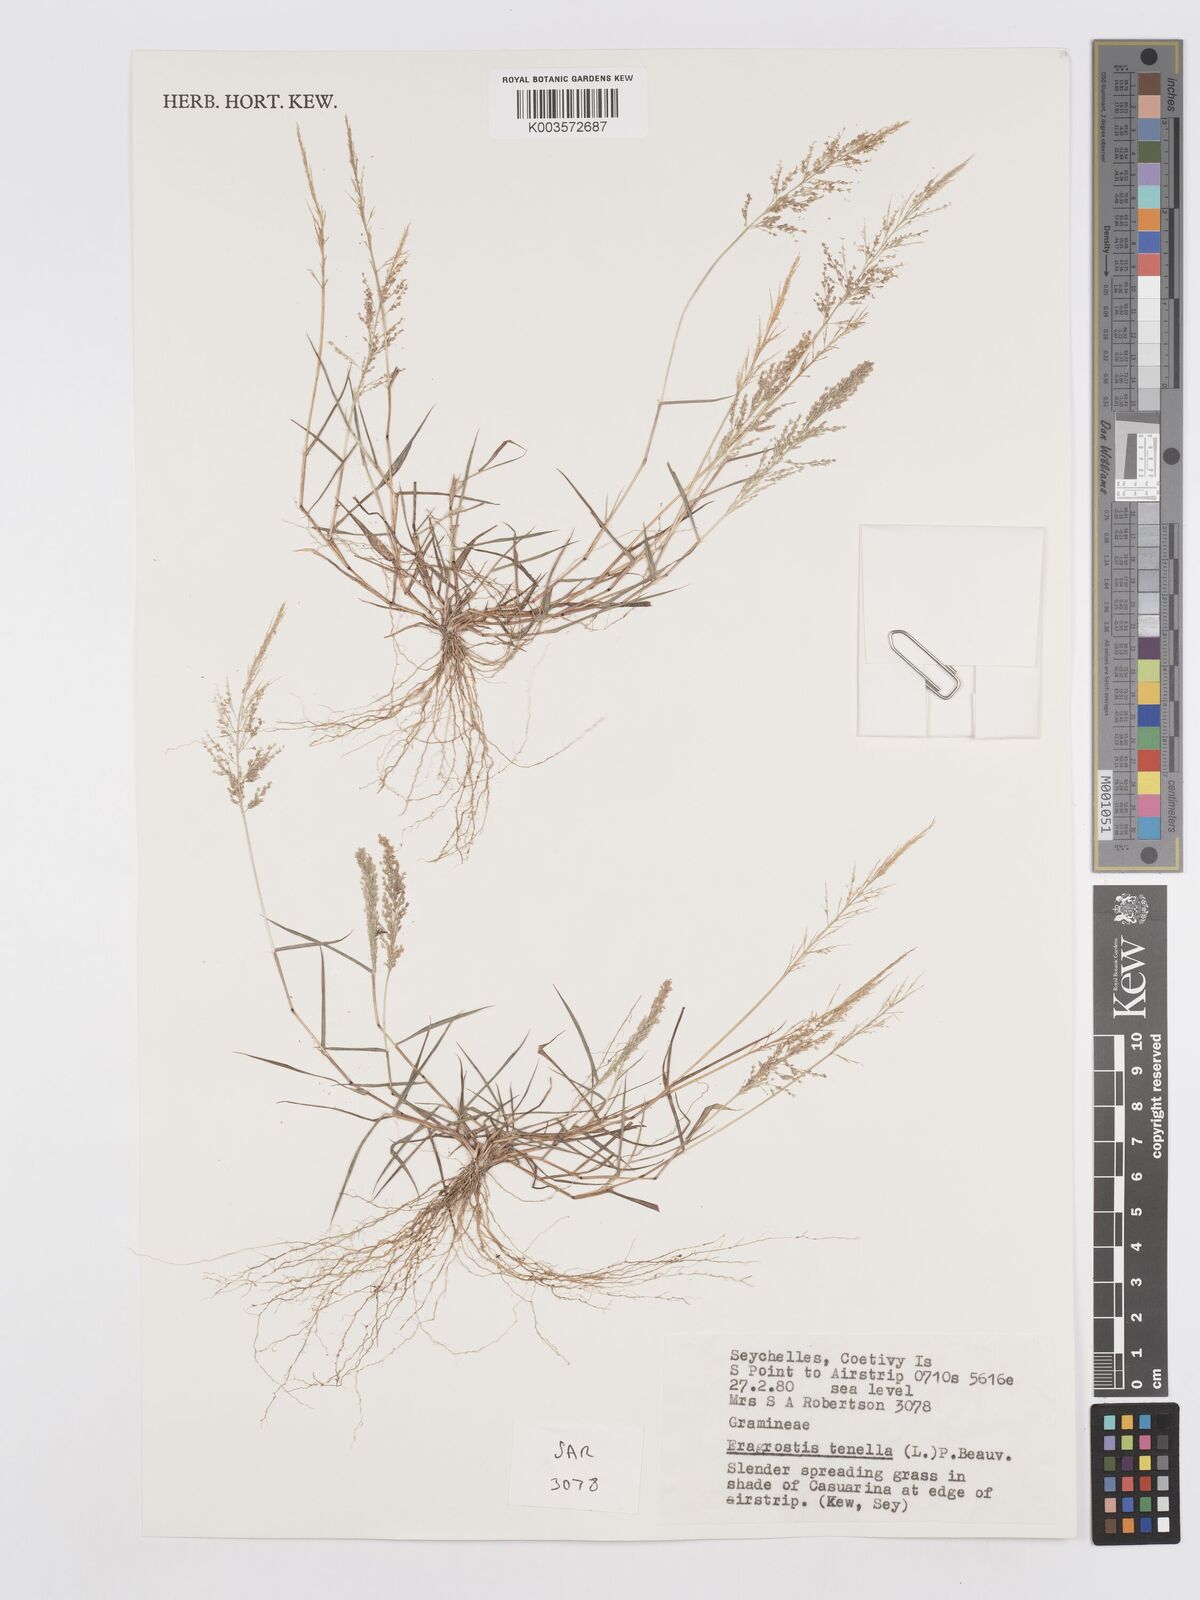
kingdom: Plantae
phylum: Tracheophyta
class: Liliopsida
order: Poales
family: Poaceae
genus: Eragrostis
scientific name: Eragrostis tenella
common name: Japanese lovegrass
